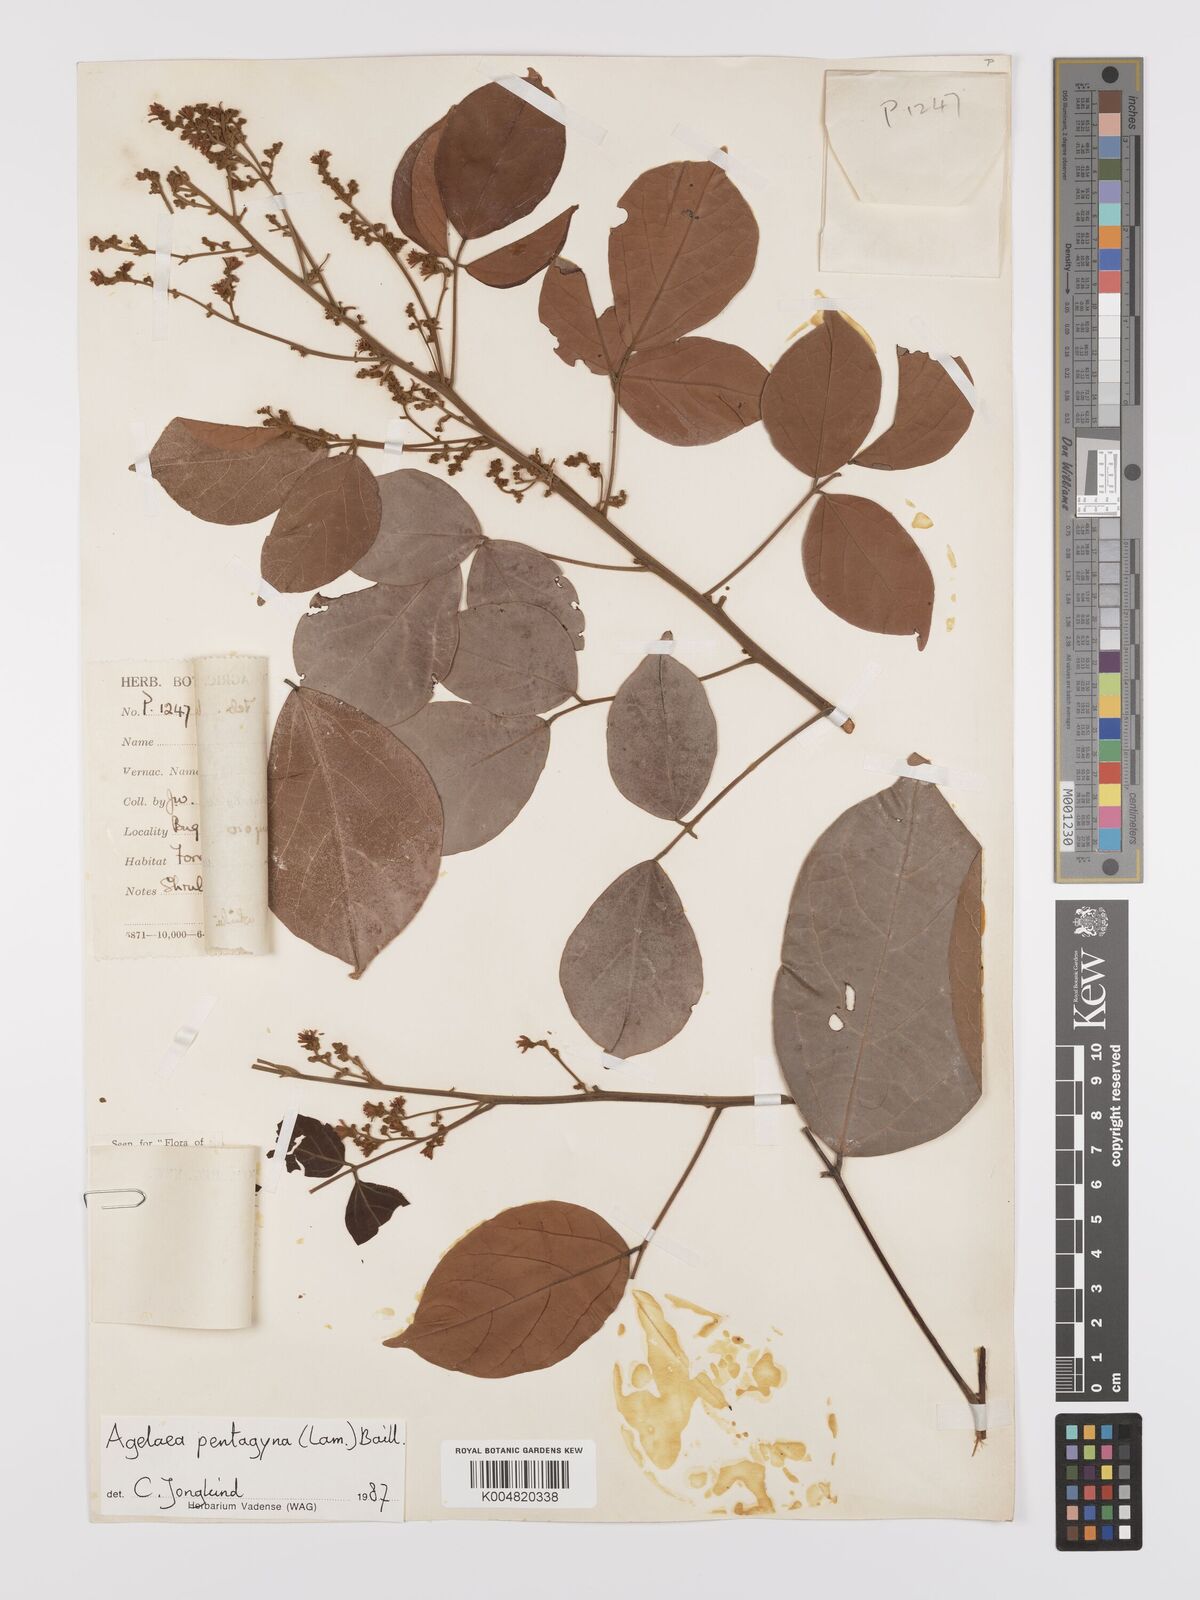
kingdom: Plantae
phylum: Tracheophyta
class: Magnoliopsida
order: Oxalidales
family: Connaraceae
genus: Agelaea
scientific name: Agelaea pentagyna
